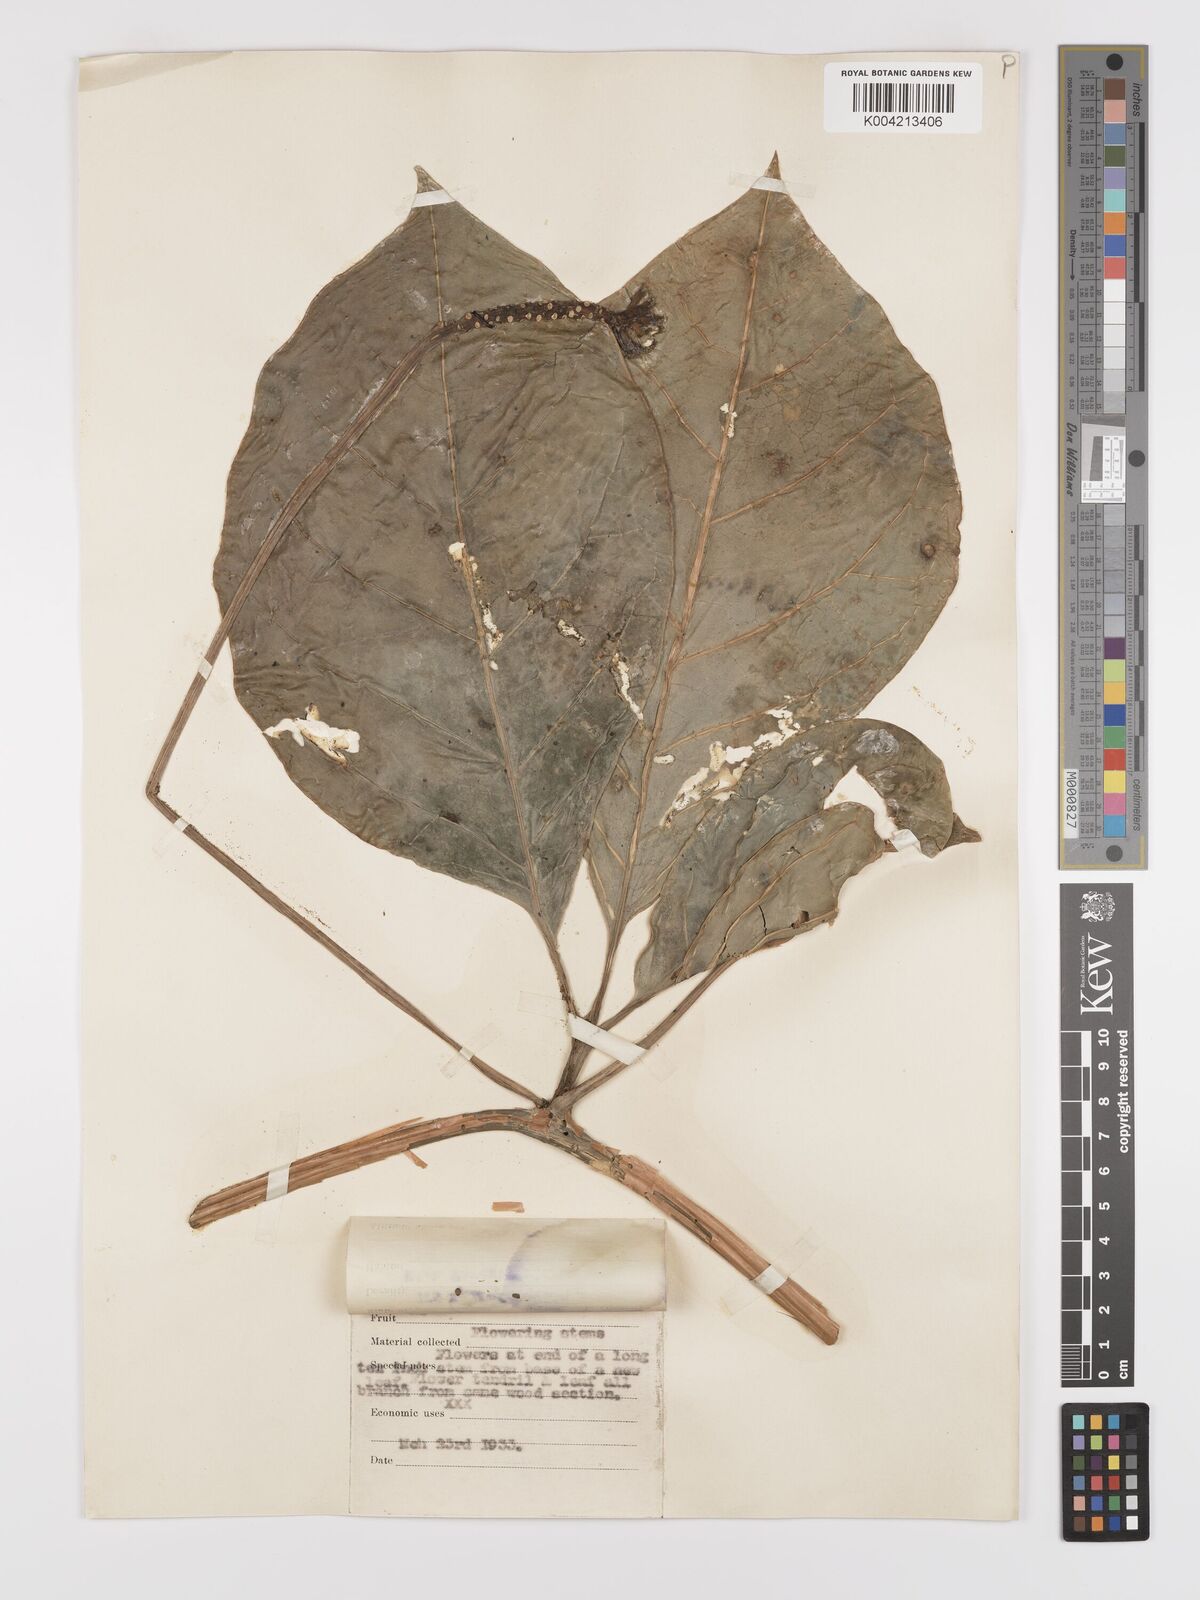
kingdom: Plantae
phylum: Tracheophyta
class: Magnoliopsida
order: Cucurbitales
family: Cucurbitaceae
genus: Psiguria
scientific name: Psiguria triphylla
